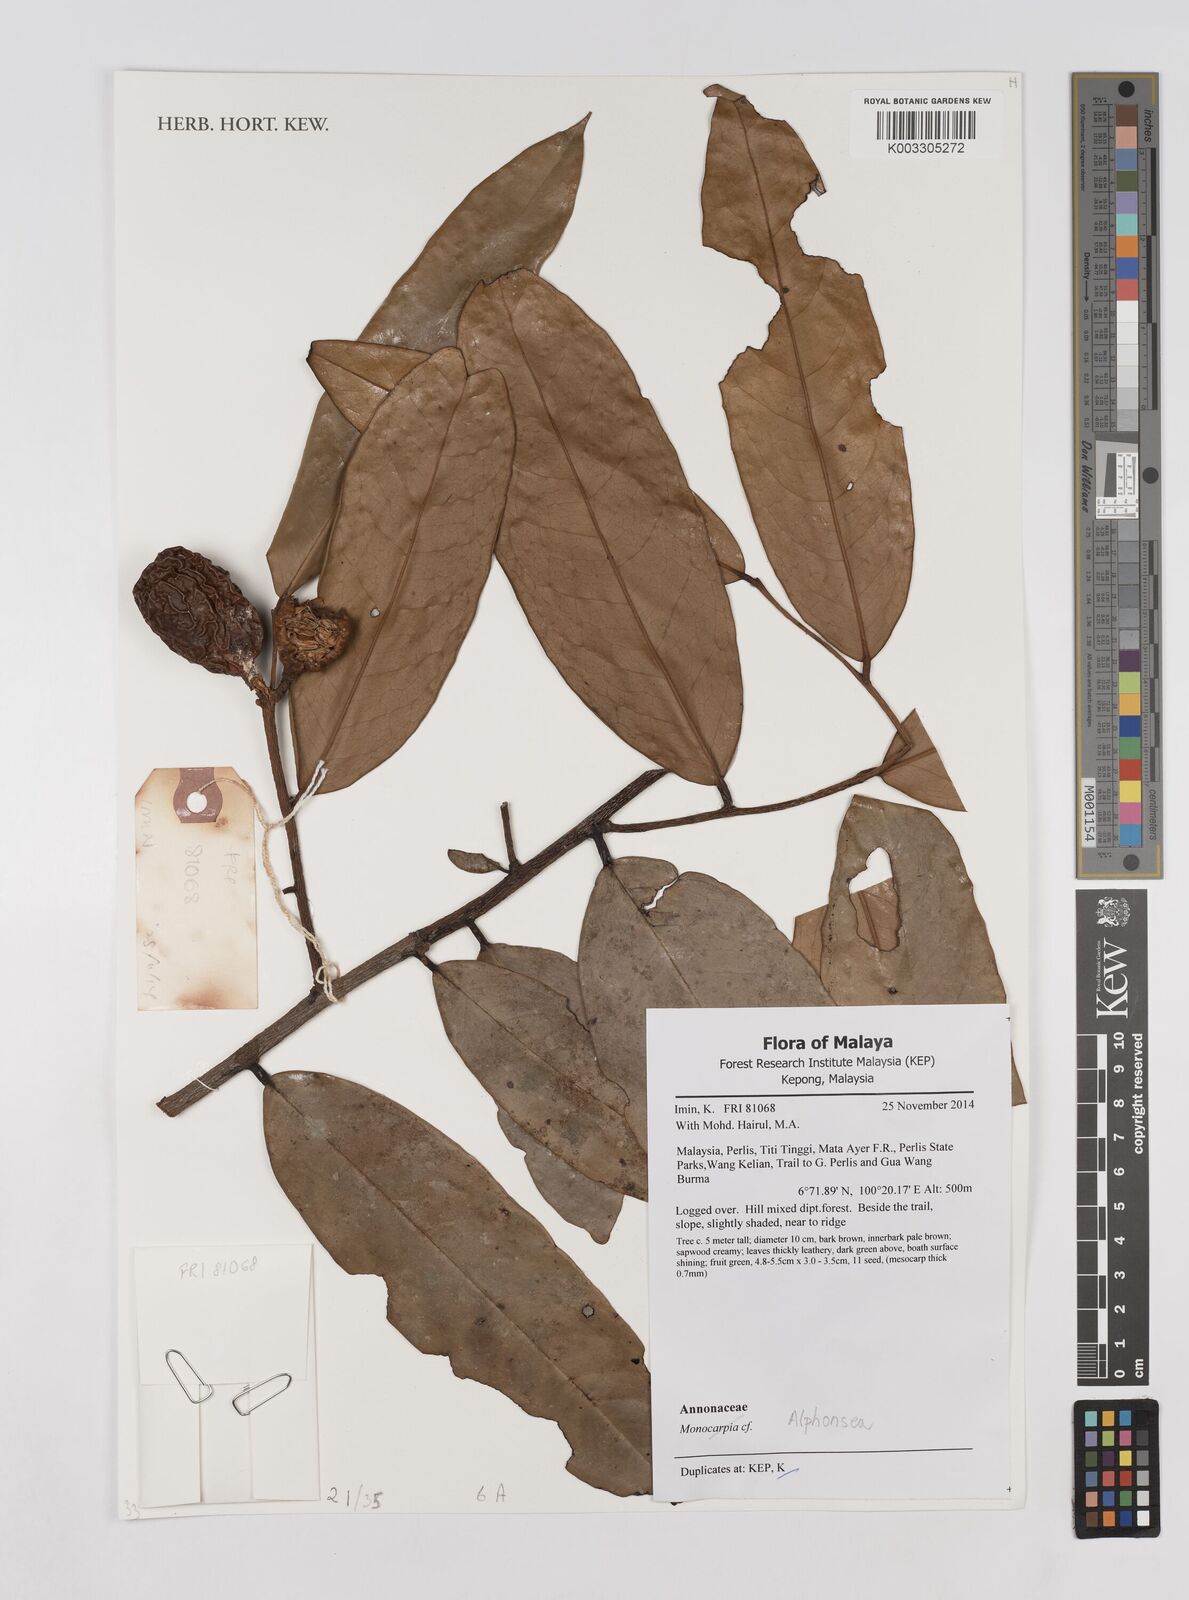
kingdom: Plantae
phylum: Tracheophyta
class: Magnoliopsida
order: Magnoliales
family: Annonaceae
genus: Alphonsea
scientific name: Alphonsea
